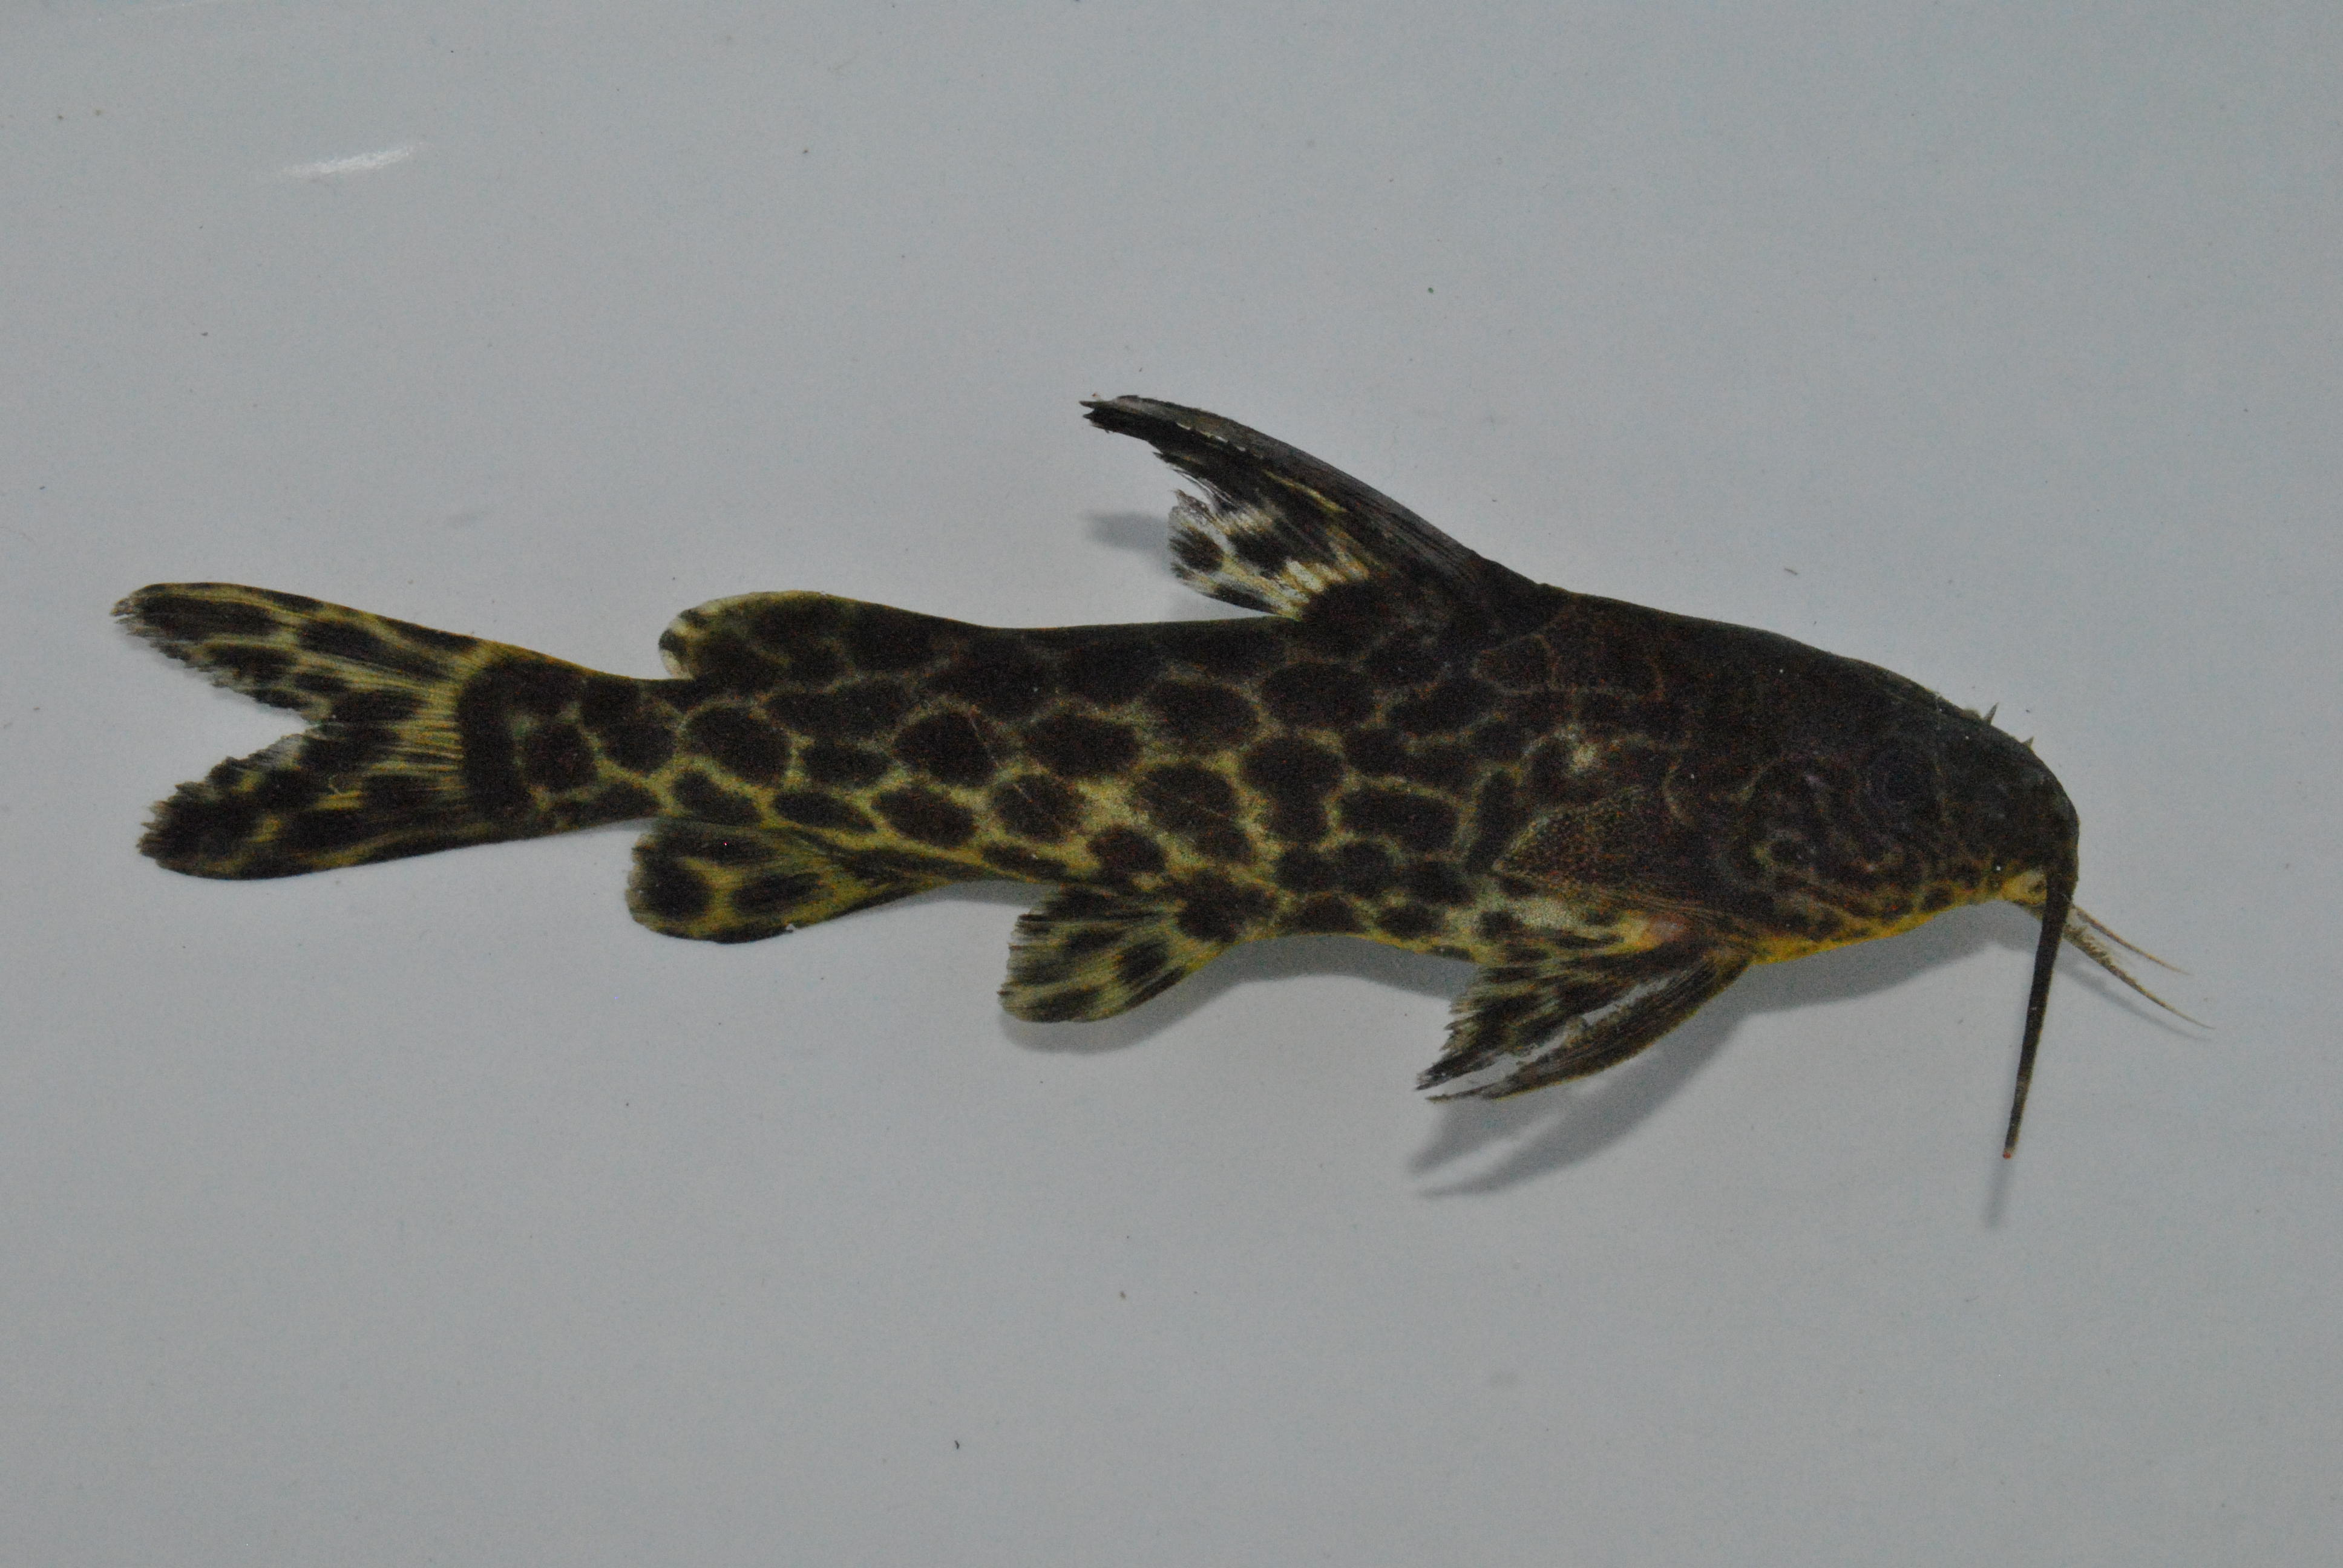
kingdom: Animalia
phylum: Chordata
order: Siluriformes
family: Mochokidae
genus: Synodontis
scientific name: Synodontis macrostigma
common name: Largespot squeaker
